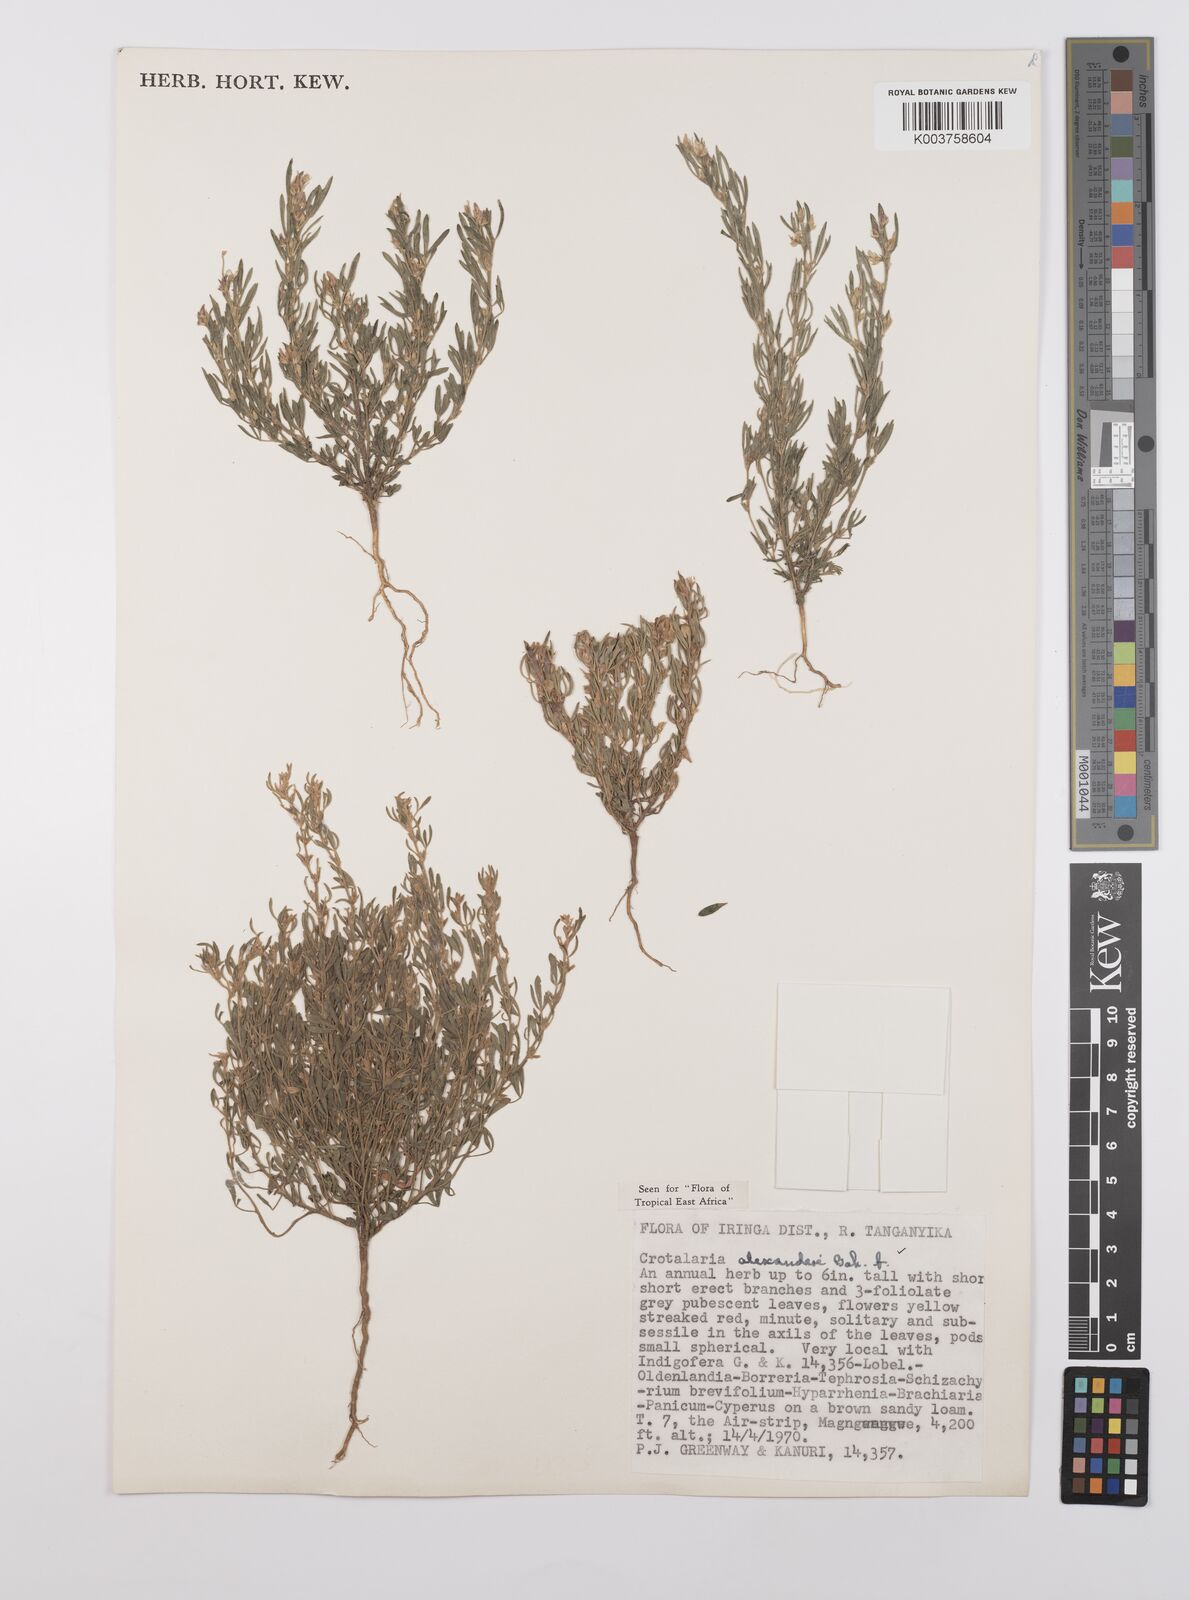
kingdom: Plantae
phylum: Tracheophyta
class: Magnoliopsida
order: Fabales
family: Fabaceae
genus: Crotalaria
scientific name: Crotalaria alexandri
